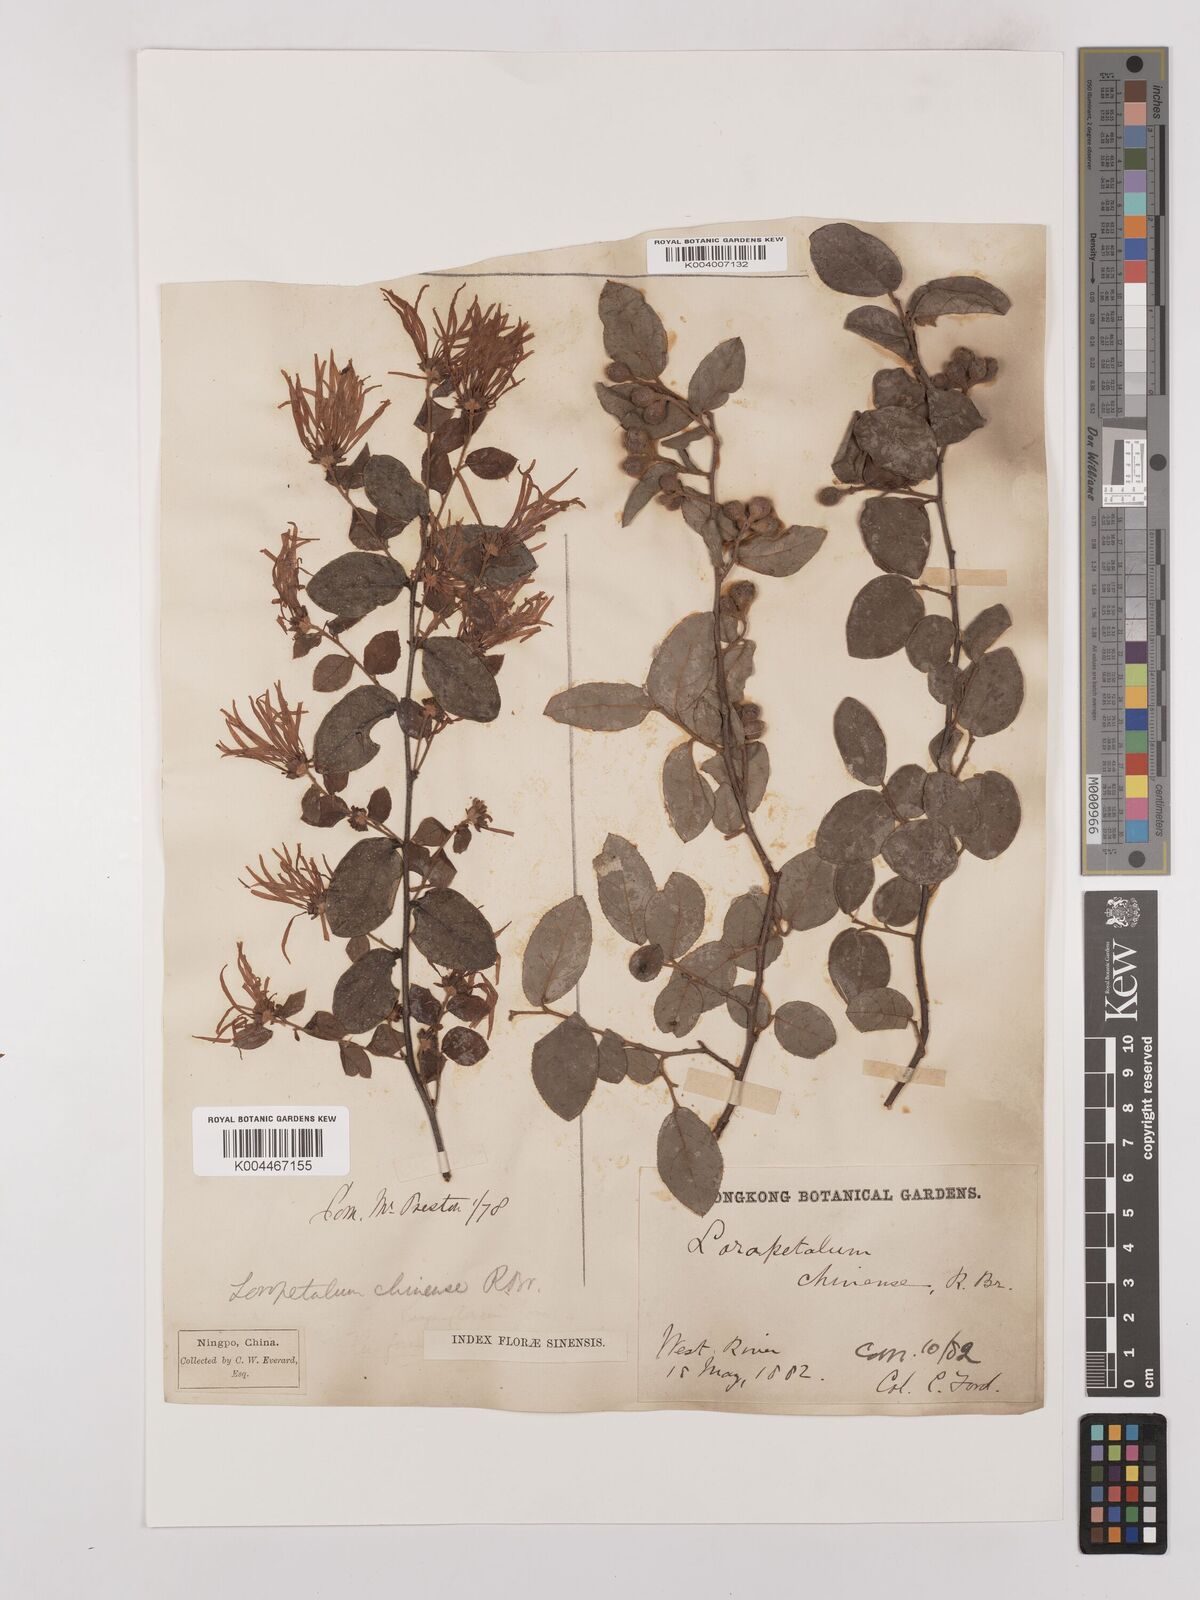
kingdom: Plantae
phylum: Tracheophyta
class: Magnoliopsida
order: Saxifragales
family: Hamamelidaceae
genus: Loropetalum
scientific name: Loropetalum chinense
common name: Chinese fringe flower
